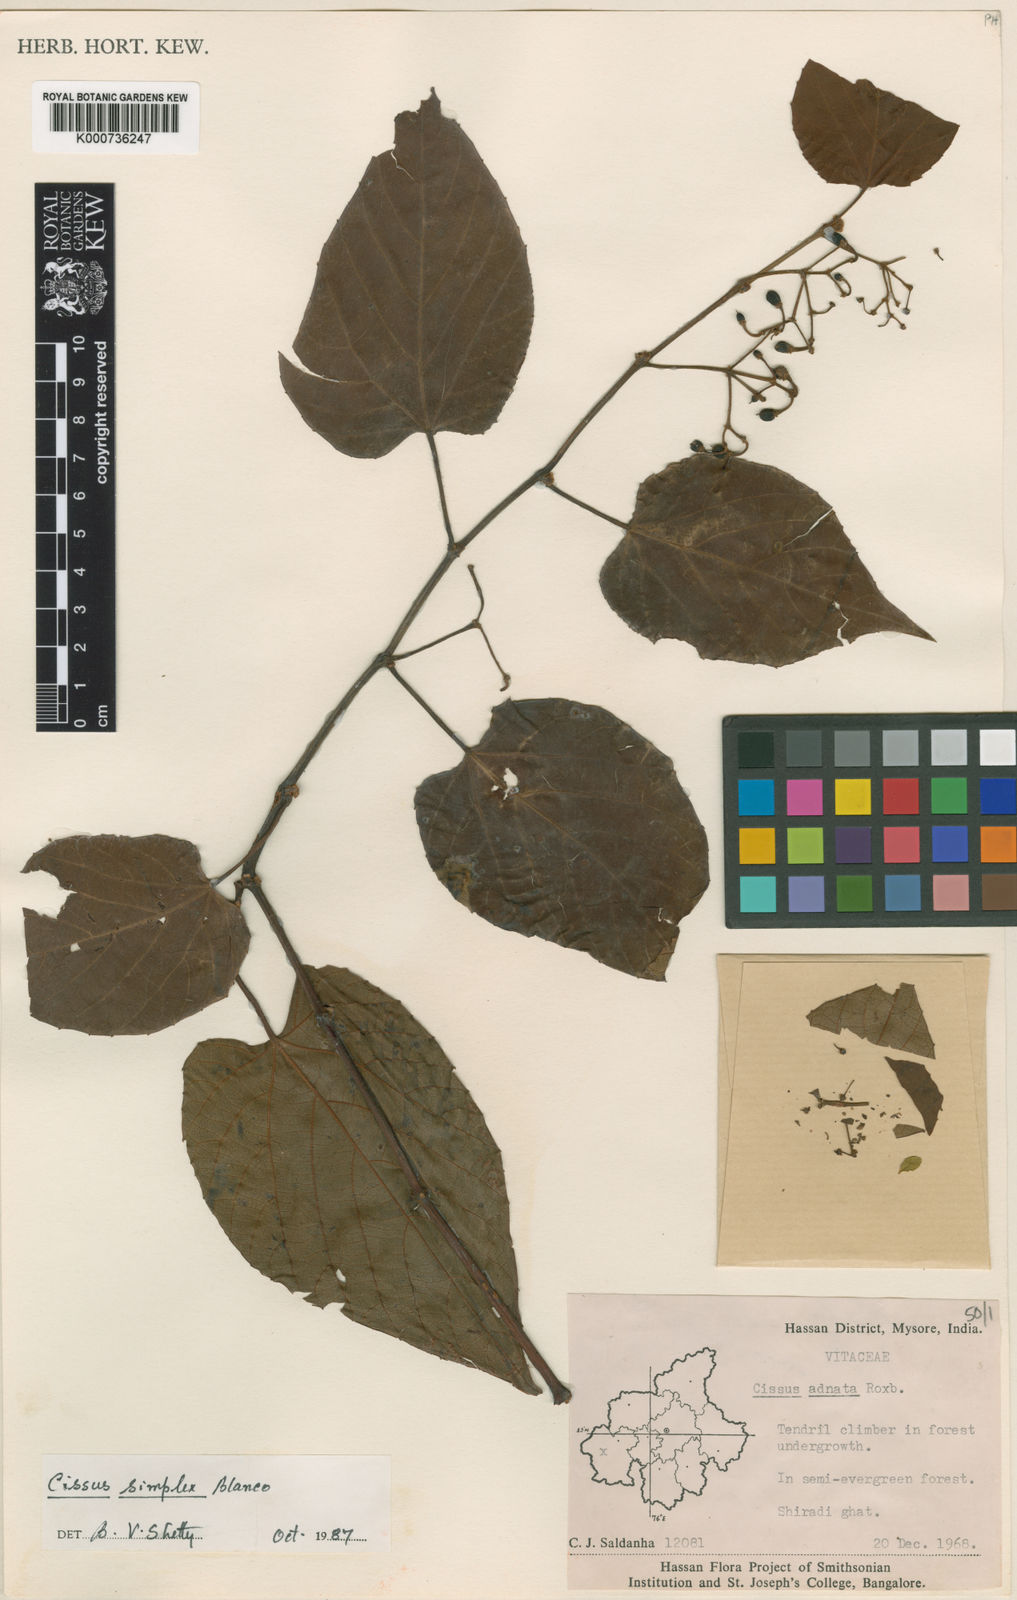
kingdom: Plantae
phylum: Tracheophyta
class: Magnoliopsida
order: Vitales
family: Vitaceae
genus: Cissus
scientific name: Cissus
